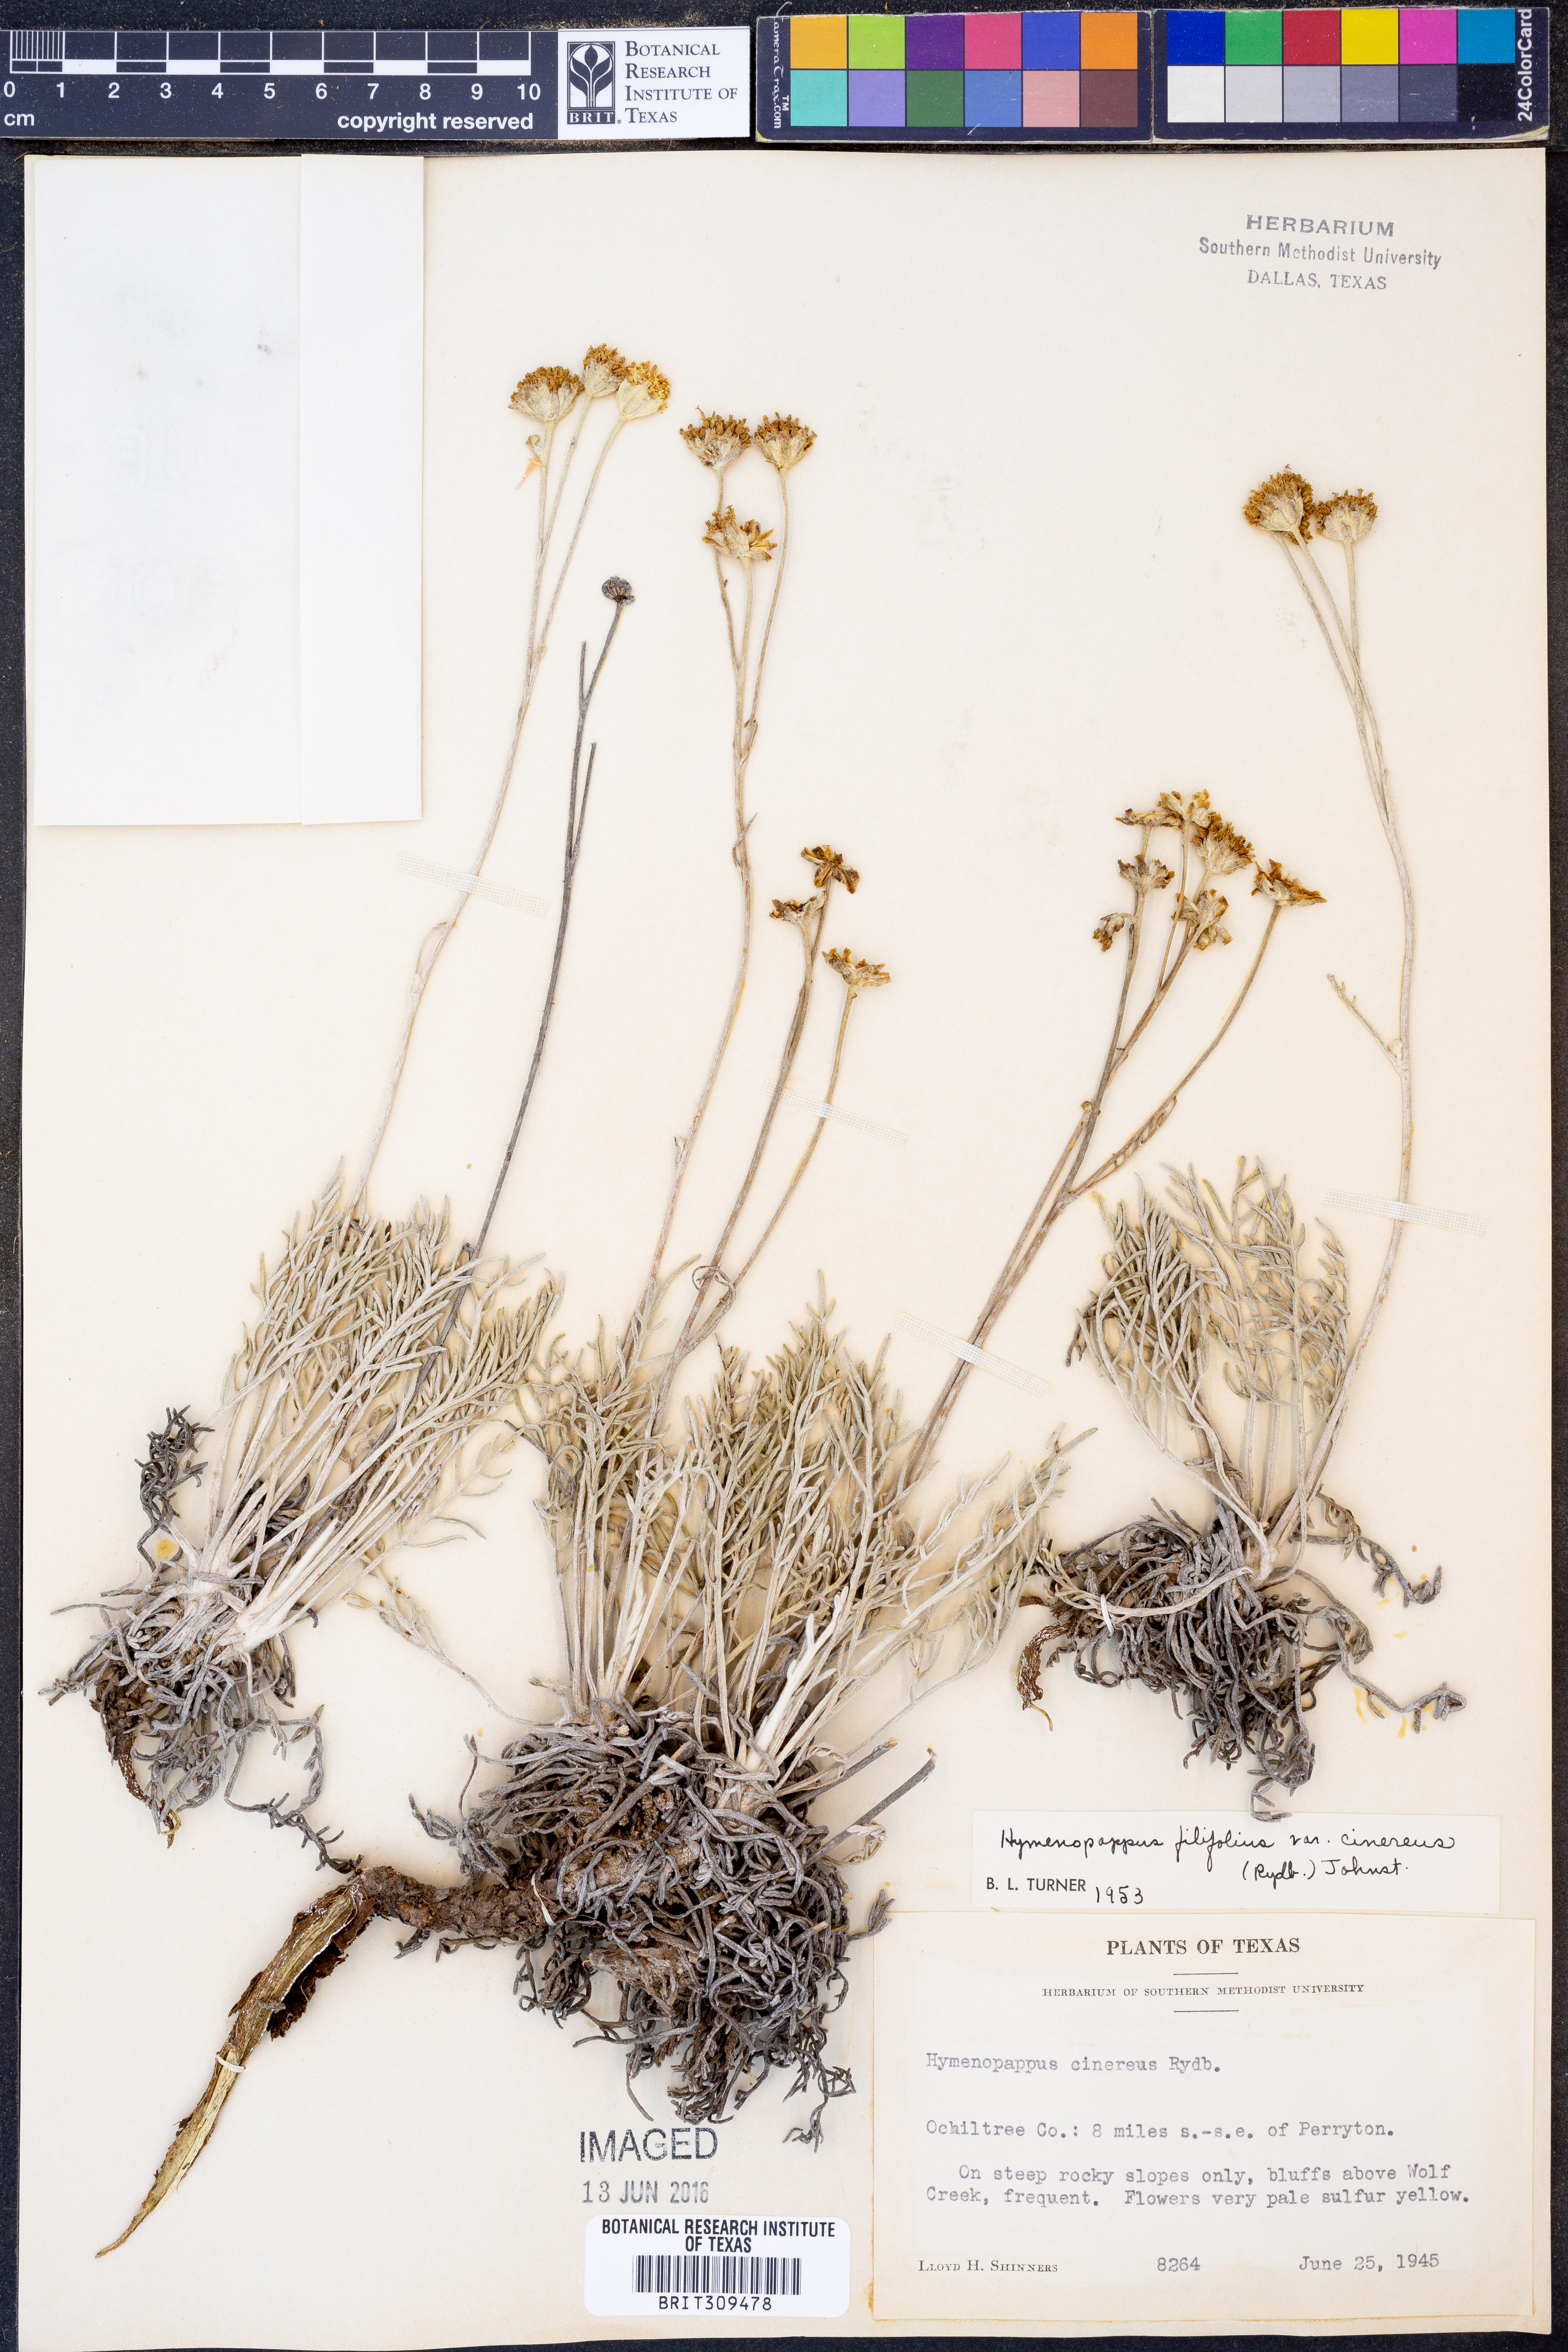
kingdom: Plantae
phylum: Tracheophyta
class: Magnoliopsida
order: Asterales
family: Asteraceae
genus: Hymenopappus
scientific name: Hymenopappus filifolius
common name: Columbia cutleaf
